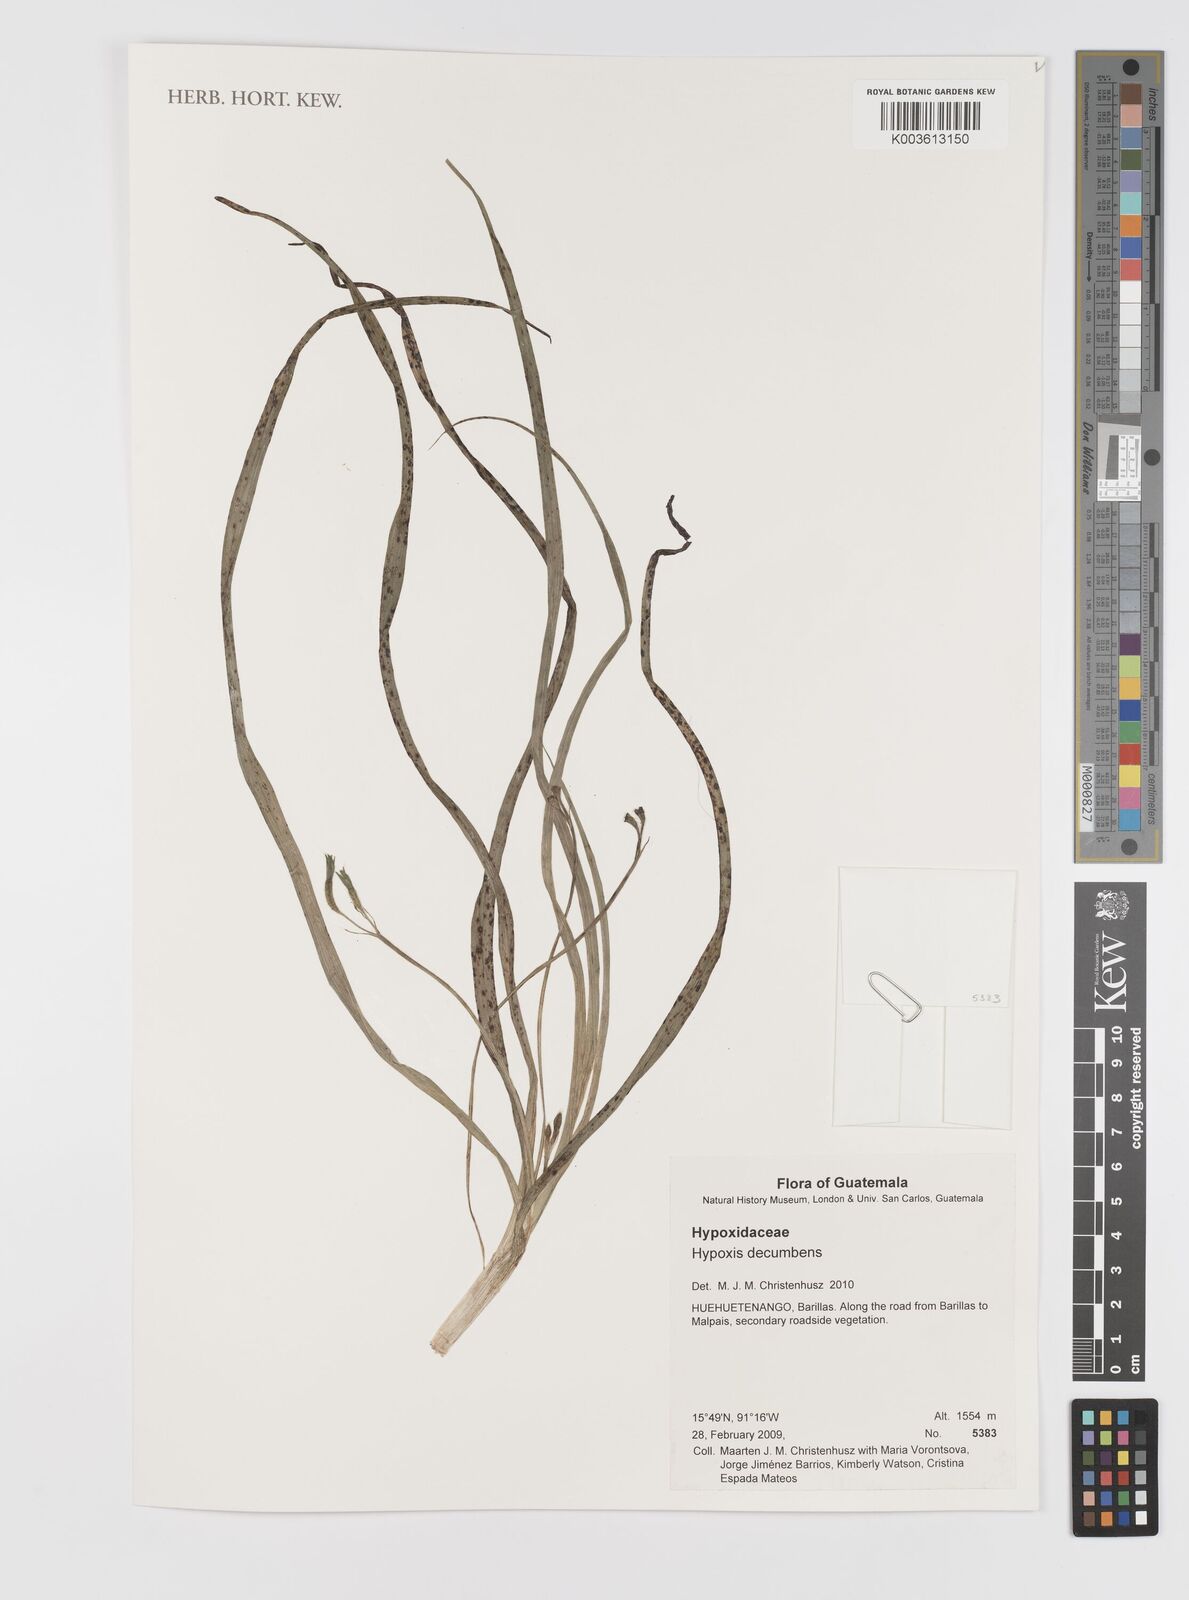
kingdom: Plantae
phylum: Tracheophyta
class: Liliopsida
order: Asparagales
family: Hypoxidaceae
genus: Hypoxis
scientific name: Hypoxis decumbens
